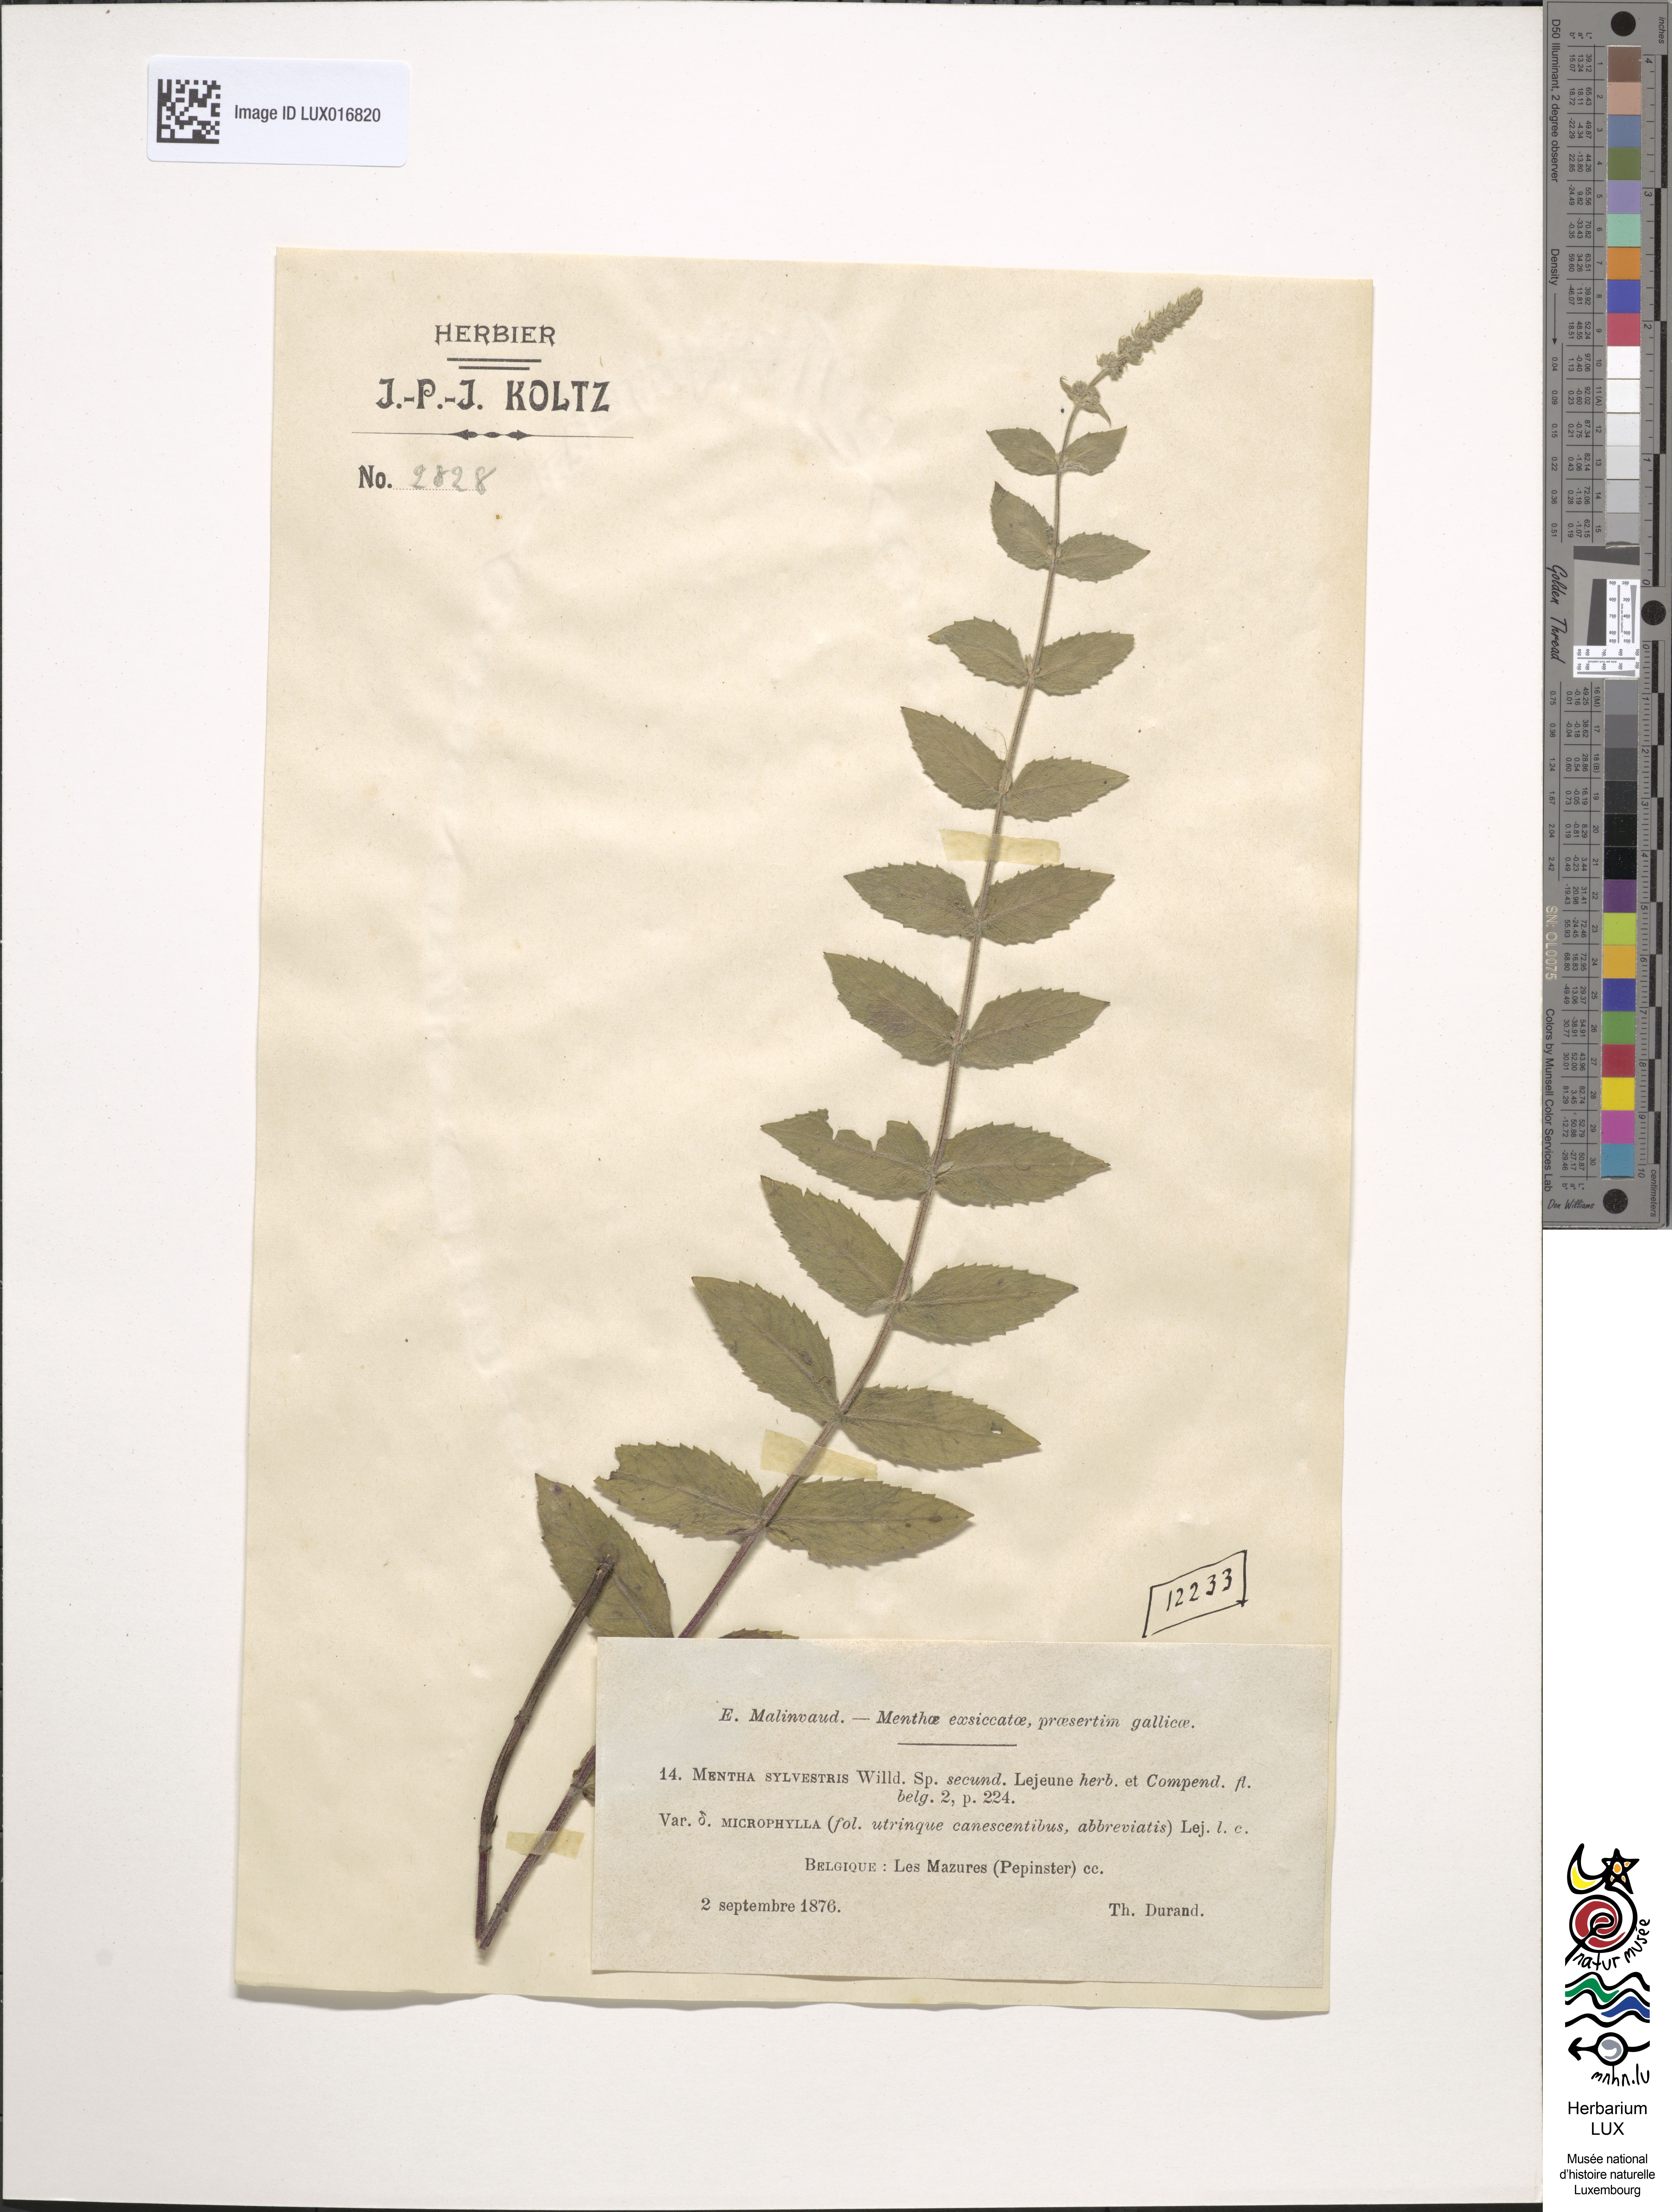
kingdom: Plantae
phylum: Tracheophyta
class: Magnoliopsida
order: Lamiales
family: Lamiaceae
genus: Mentha
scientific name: Mentha longifolia
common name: Horse mint
